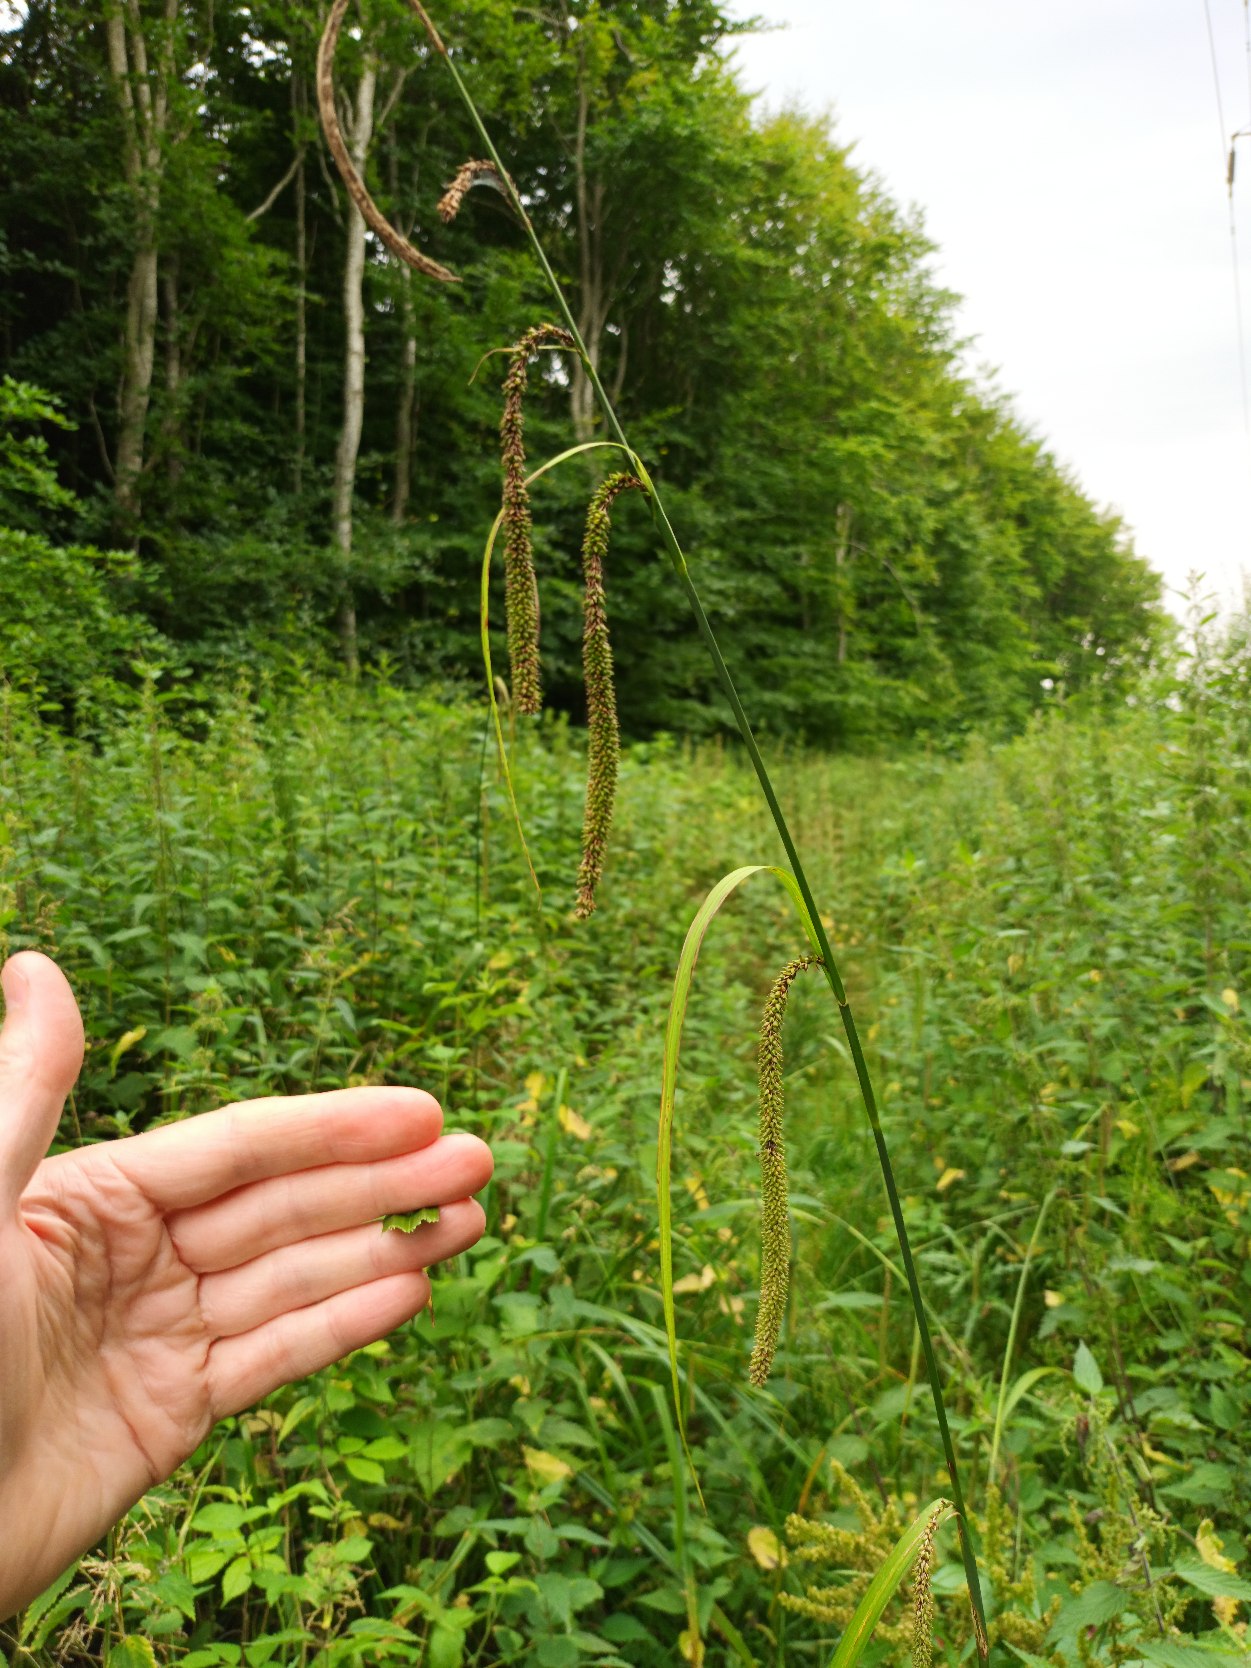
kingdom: Plantae
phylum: Tracheophyta
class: Liliopsida
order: Poales
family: Cyperaceae
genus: Carex
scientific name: Carex pendula
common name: Kæmpe-star
